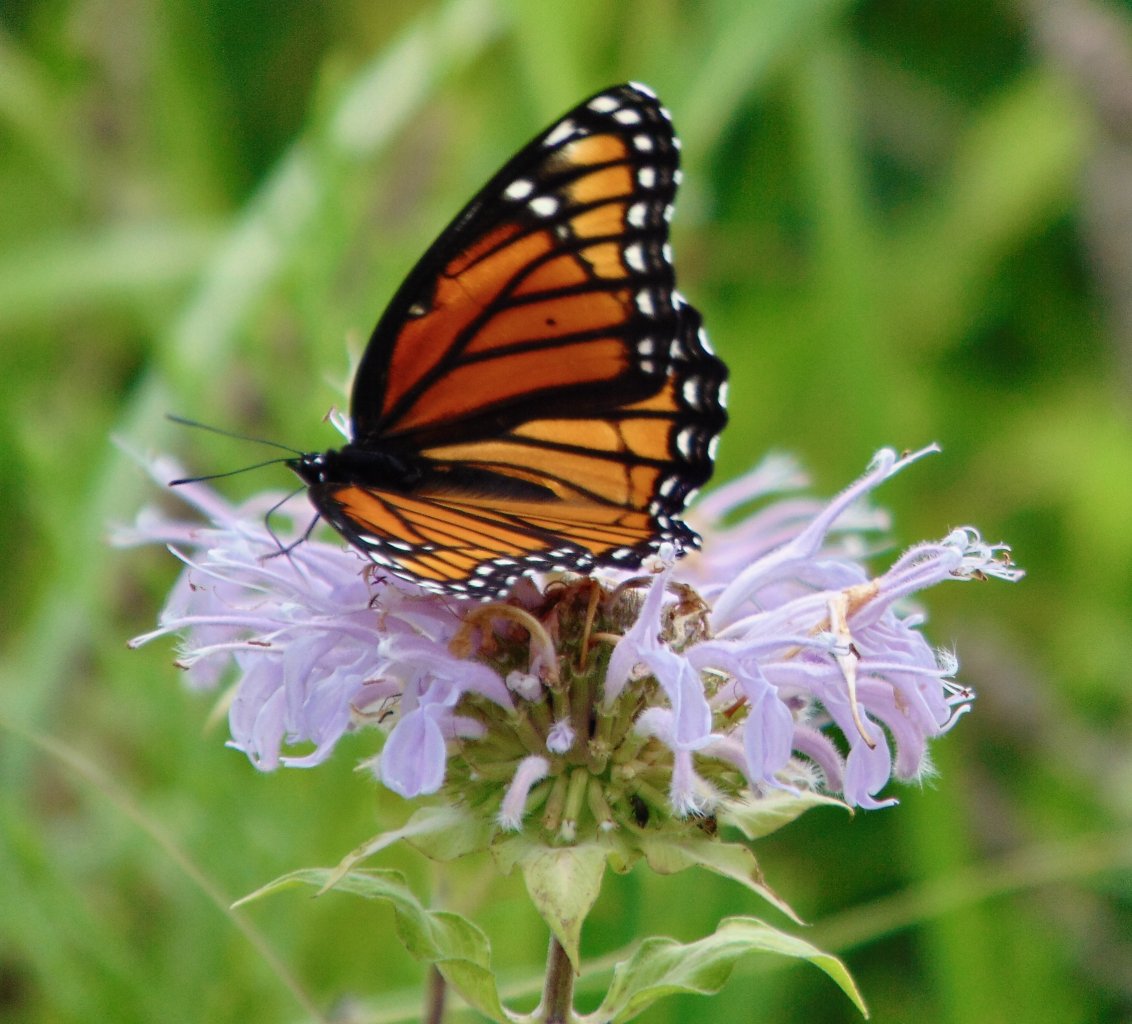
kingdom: Animalia
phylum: Arthropoda
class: Insecta
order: Lepidoptera
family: Nymphalidae
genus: Limenitis
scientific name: Limenitis archippus
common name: Viceroy
